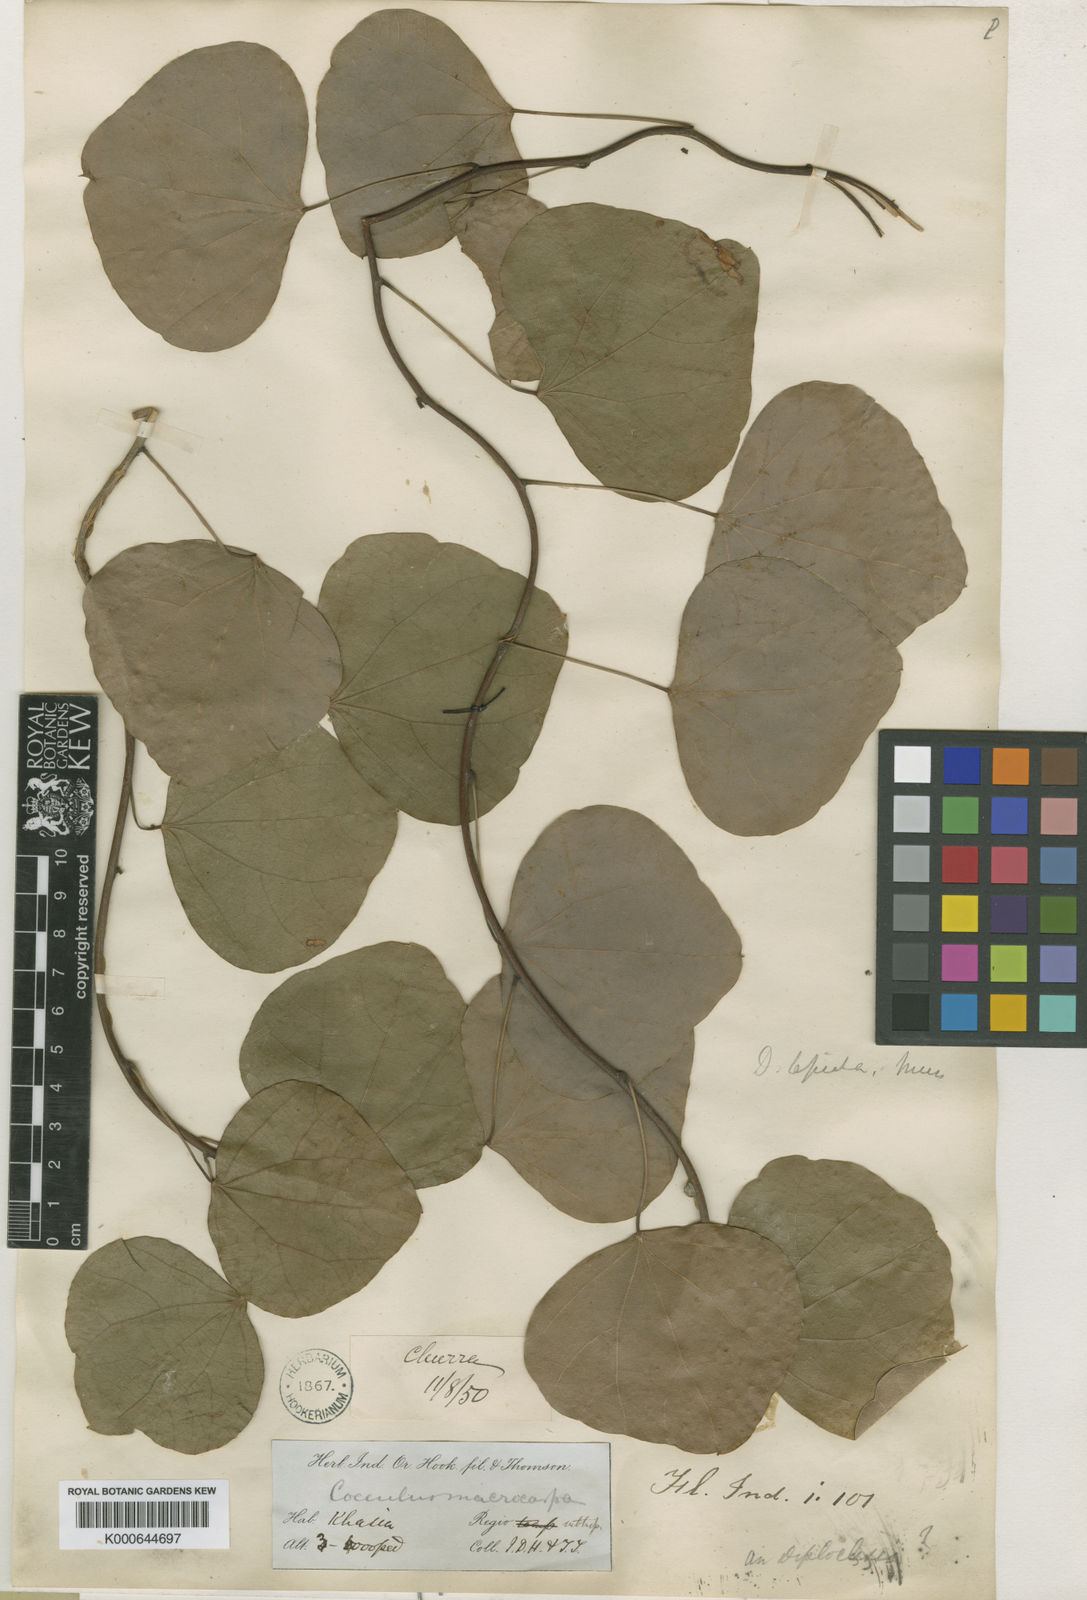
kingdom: Plantae
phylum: Tracheophyta
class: Magnoliopsida
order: Ranunculales
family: Menispermaceae
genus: Diploclisia
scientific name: Diploclisia glaucescens
